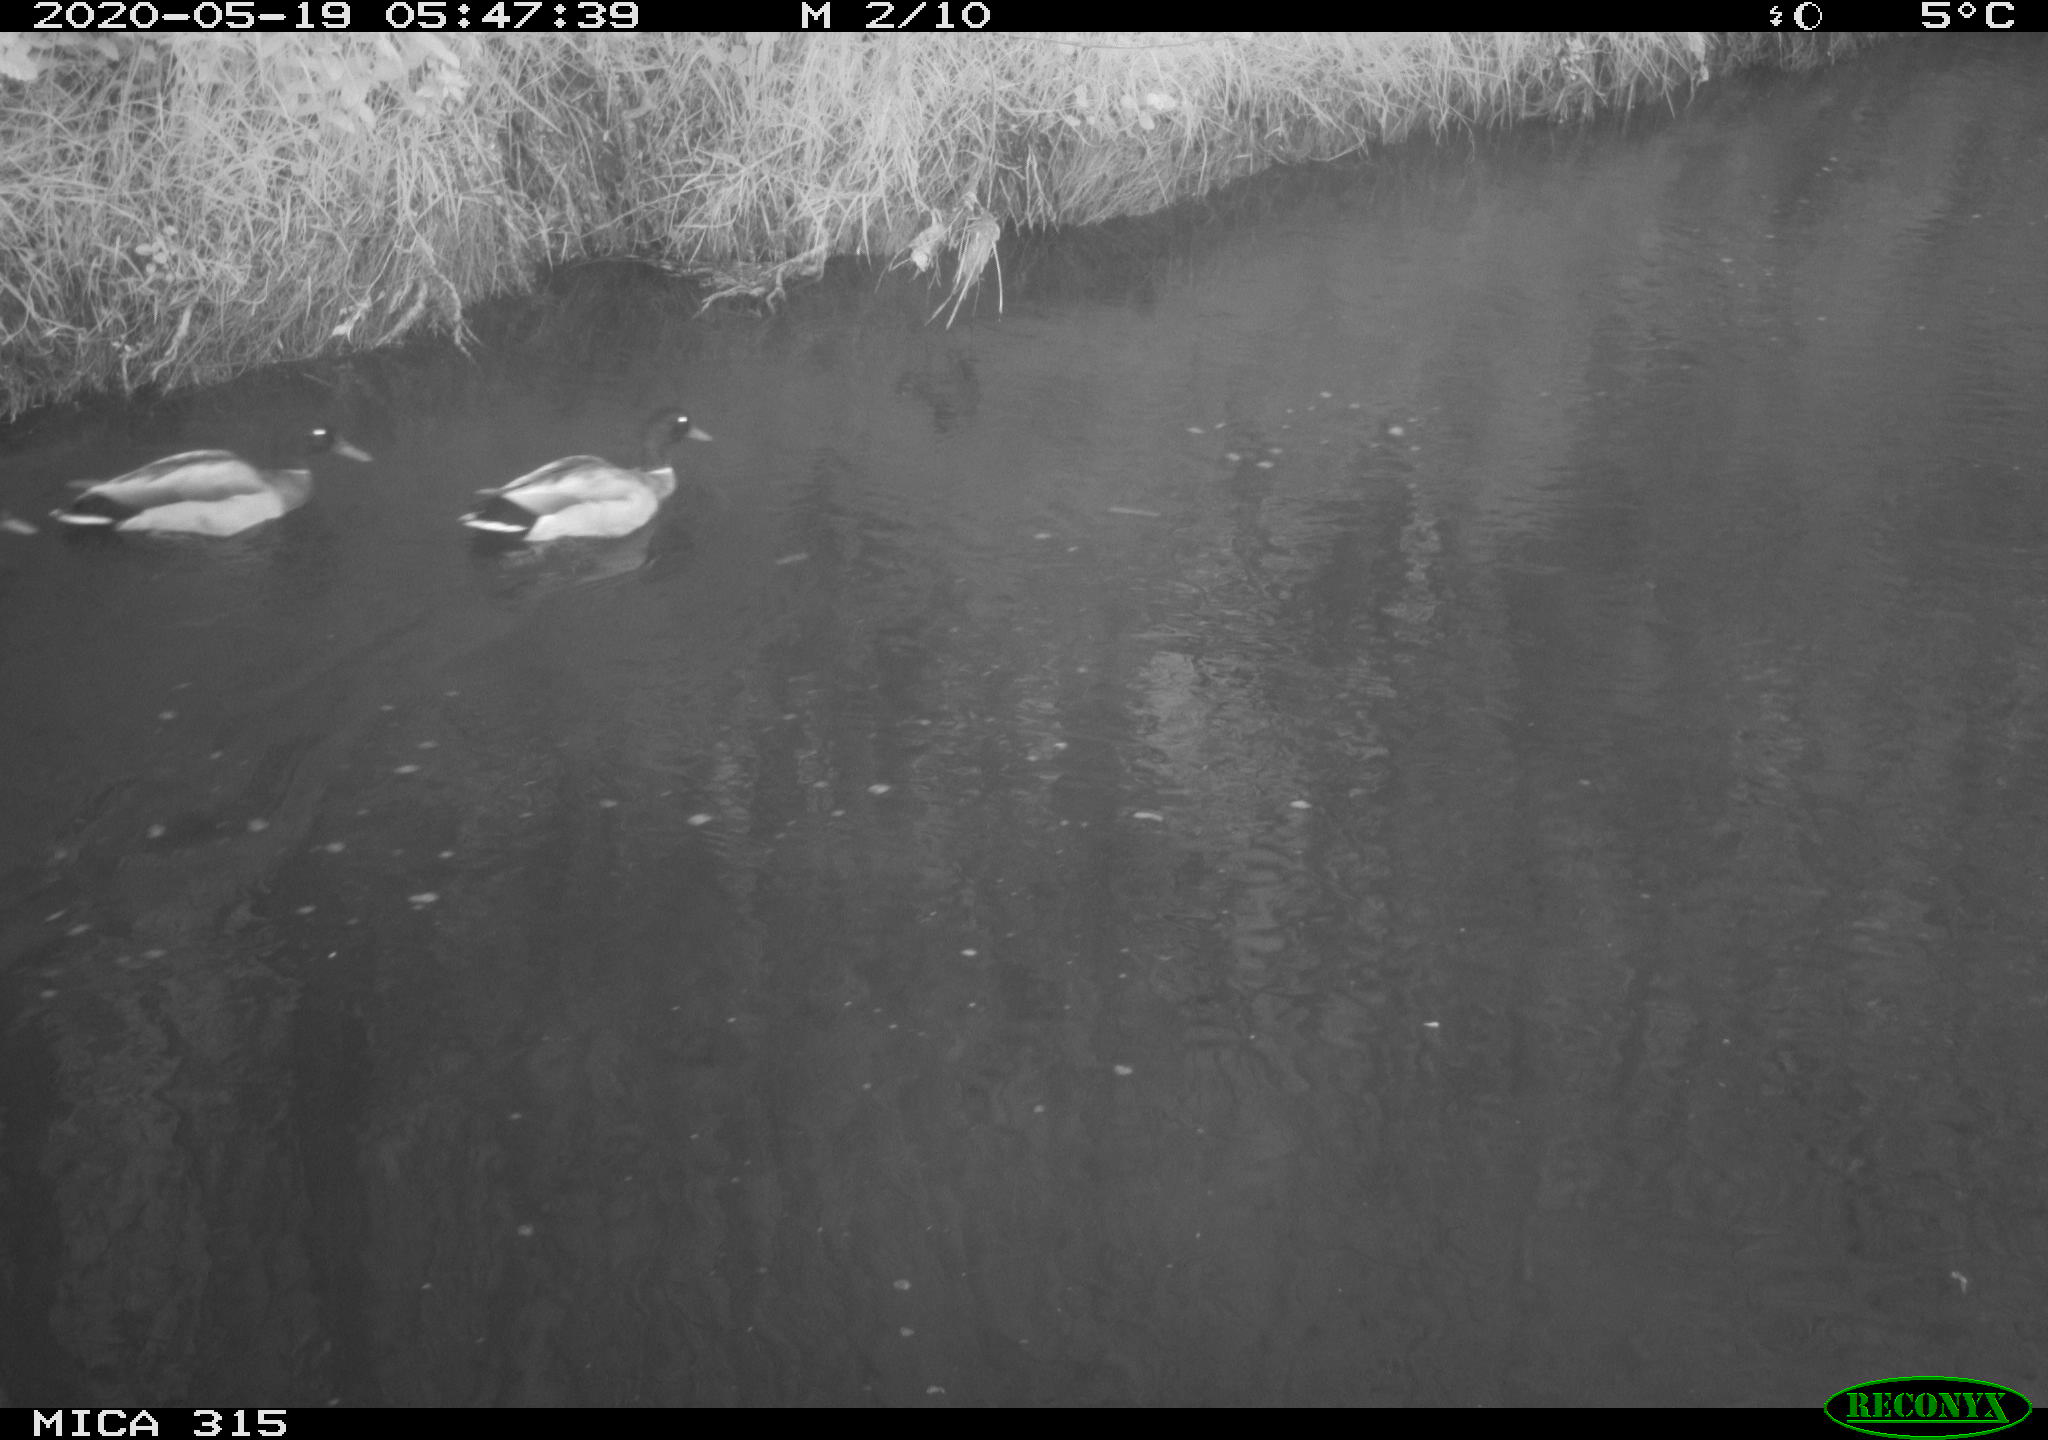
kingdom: Animalia
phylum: Chordata
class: Aves
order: Anseriformes
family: Anatidae
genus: Anas
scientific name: Anas platyrhynchos
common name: Mallard
